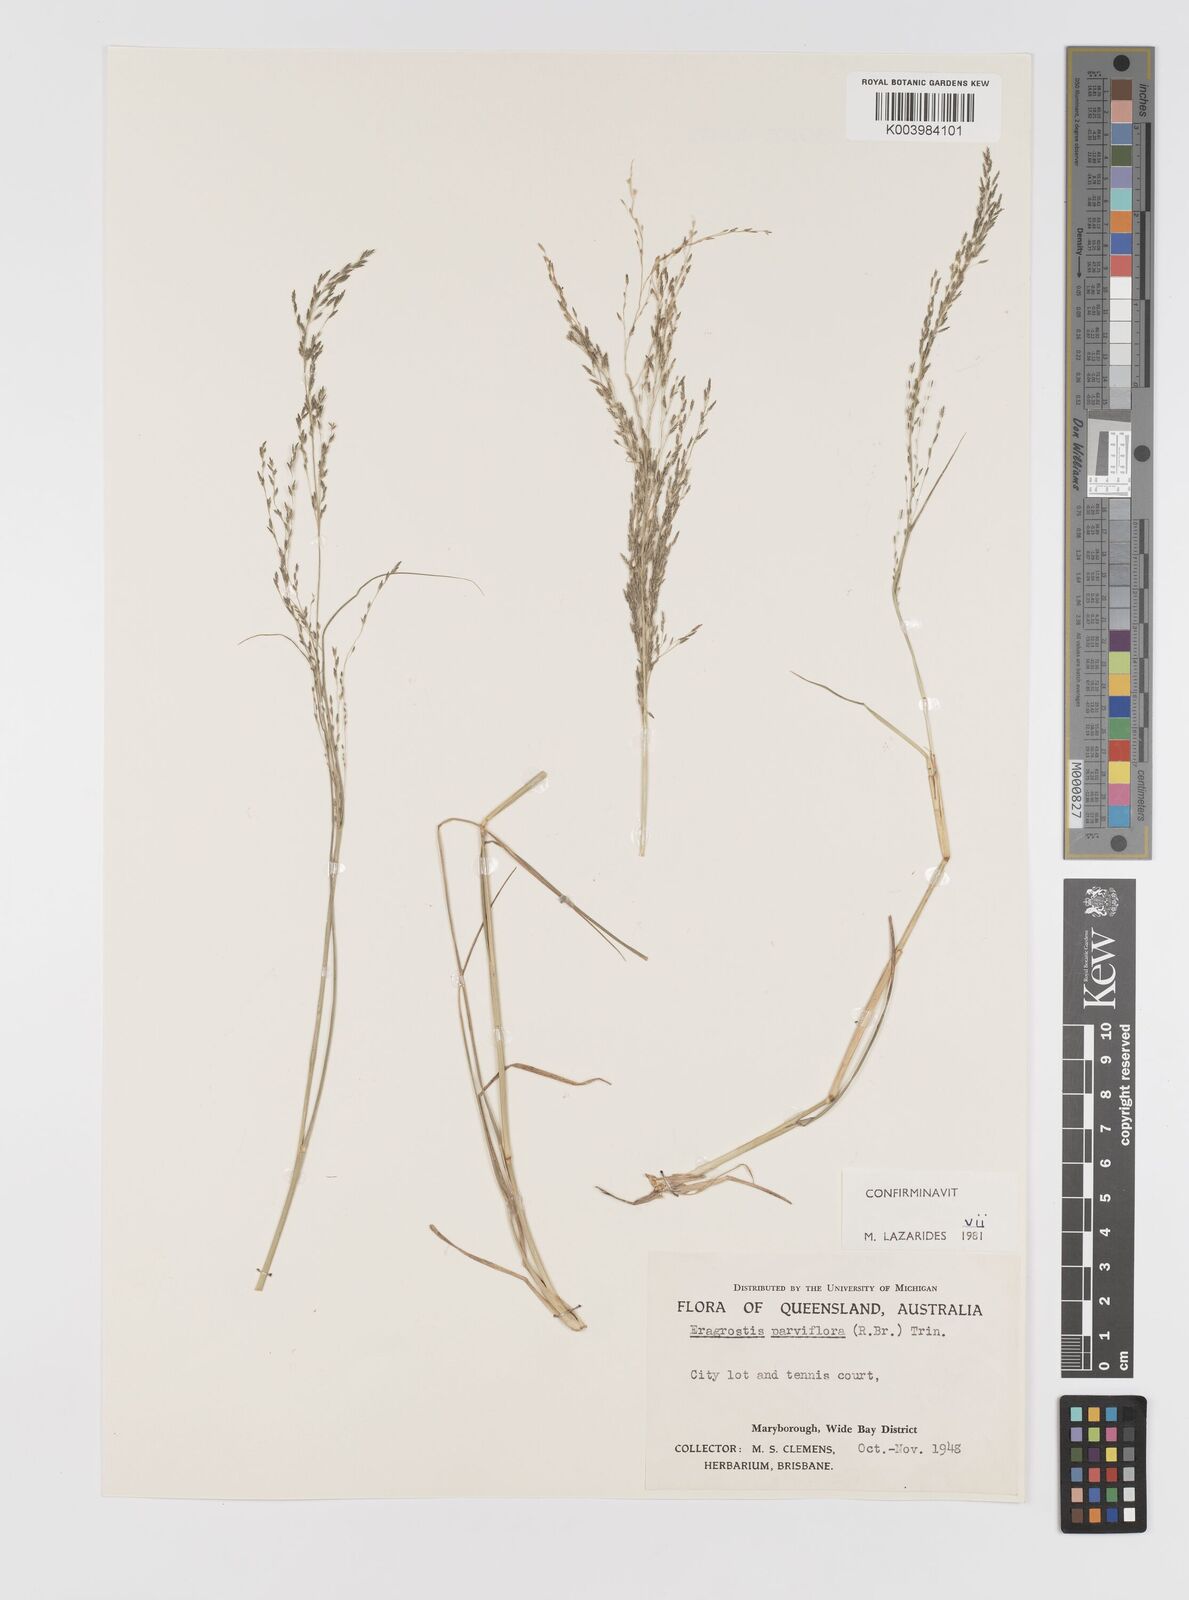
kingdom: Plantae
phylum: Tracheophyta
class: Liliopsida
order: Poales
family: Poaceae
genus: Eragrostis
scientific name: Eragrostis parviflora
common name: Weeping love-grass
